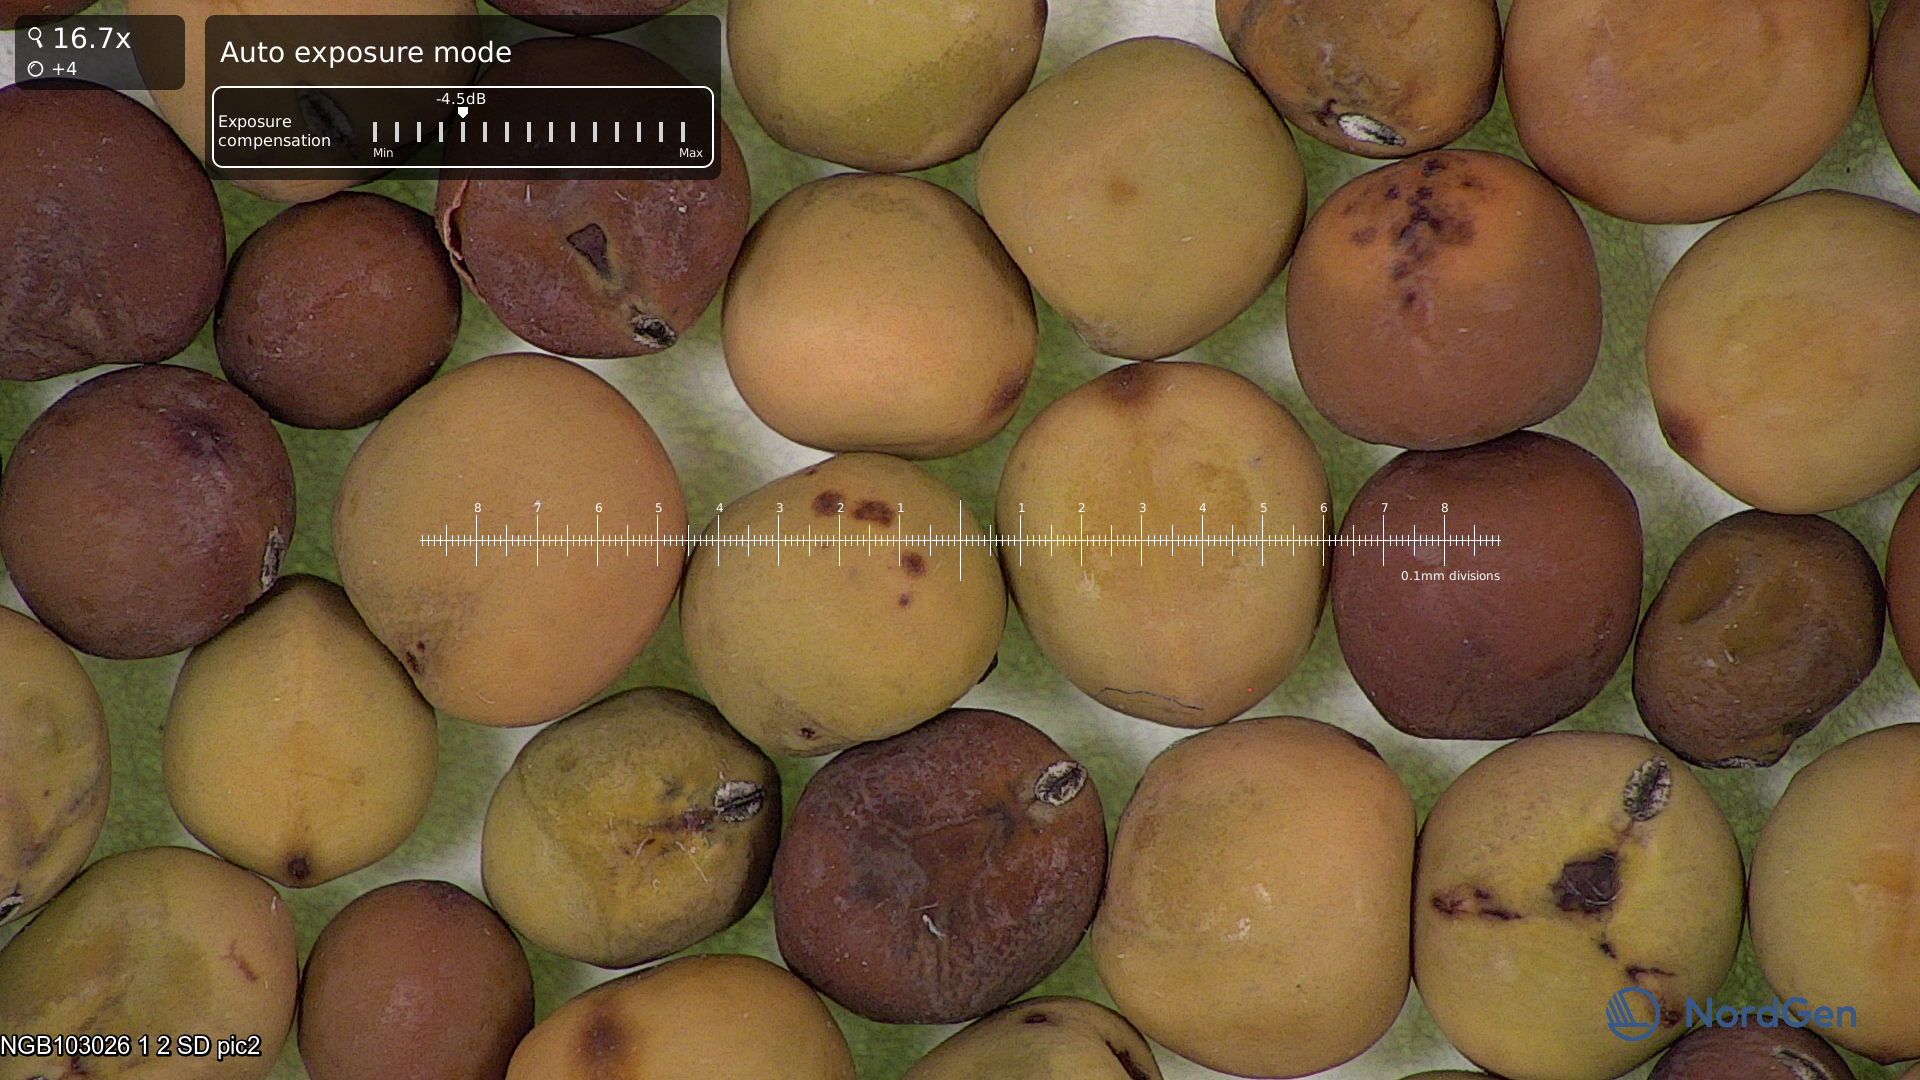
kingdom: Plantae
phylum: Tracheophyta
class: Magnoliopsida
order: Fabales
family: Fabaceae
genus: Lathyrus
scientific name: Lathyrus oleraceus
